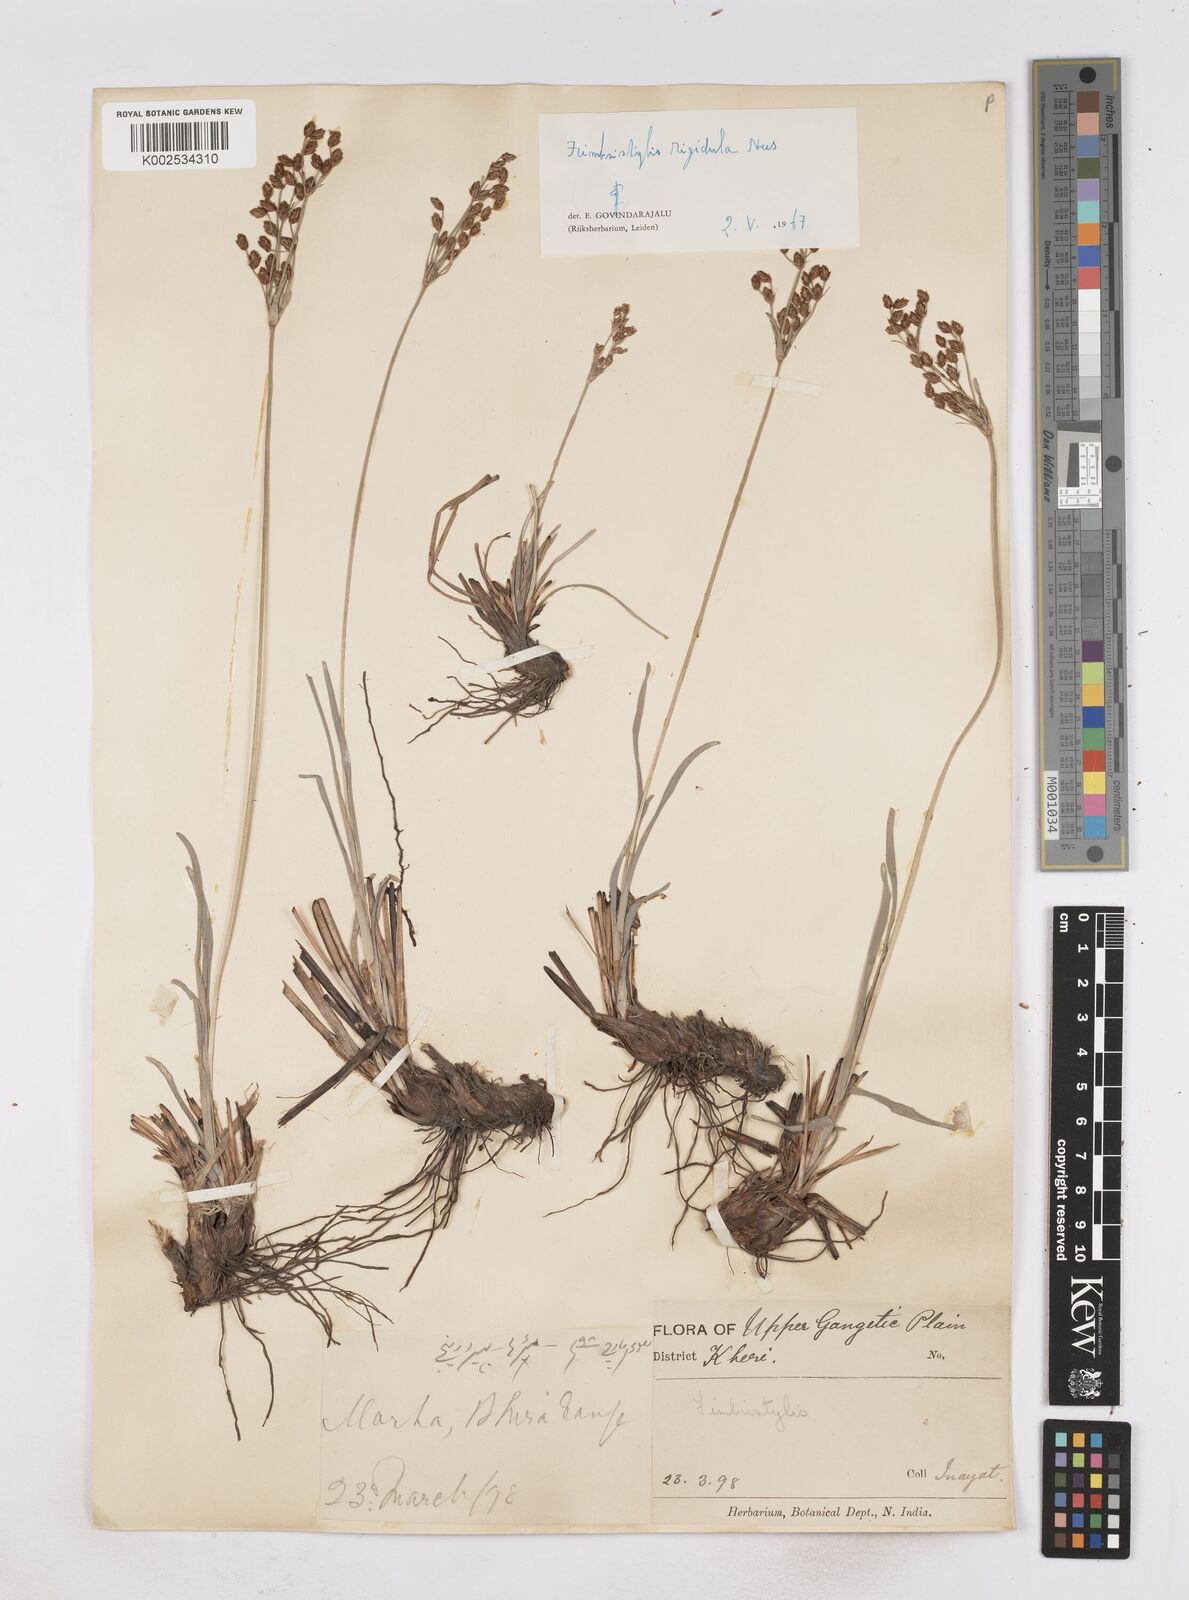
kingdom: Plantae
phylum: Tracheophyta
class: Liliopsida
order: Poales
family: Cyperaceae
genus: Fimbristylis
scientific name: Fimbristylis rigidula
